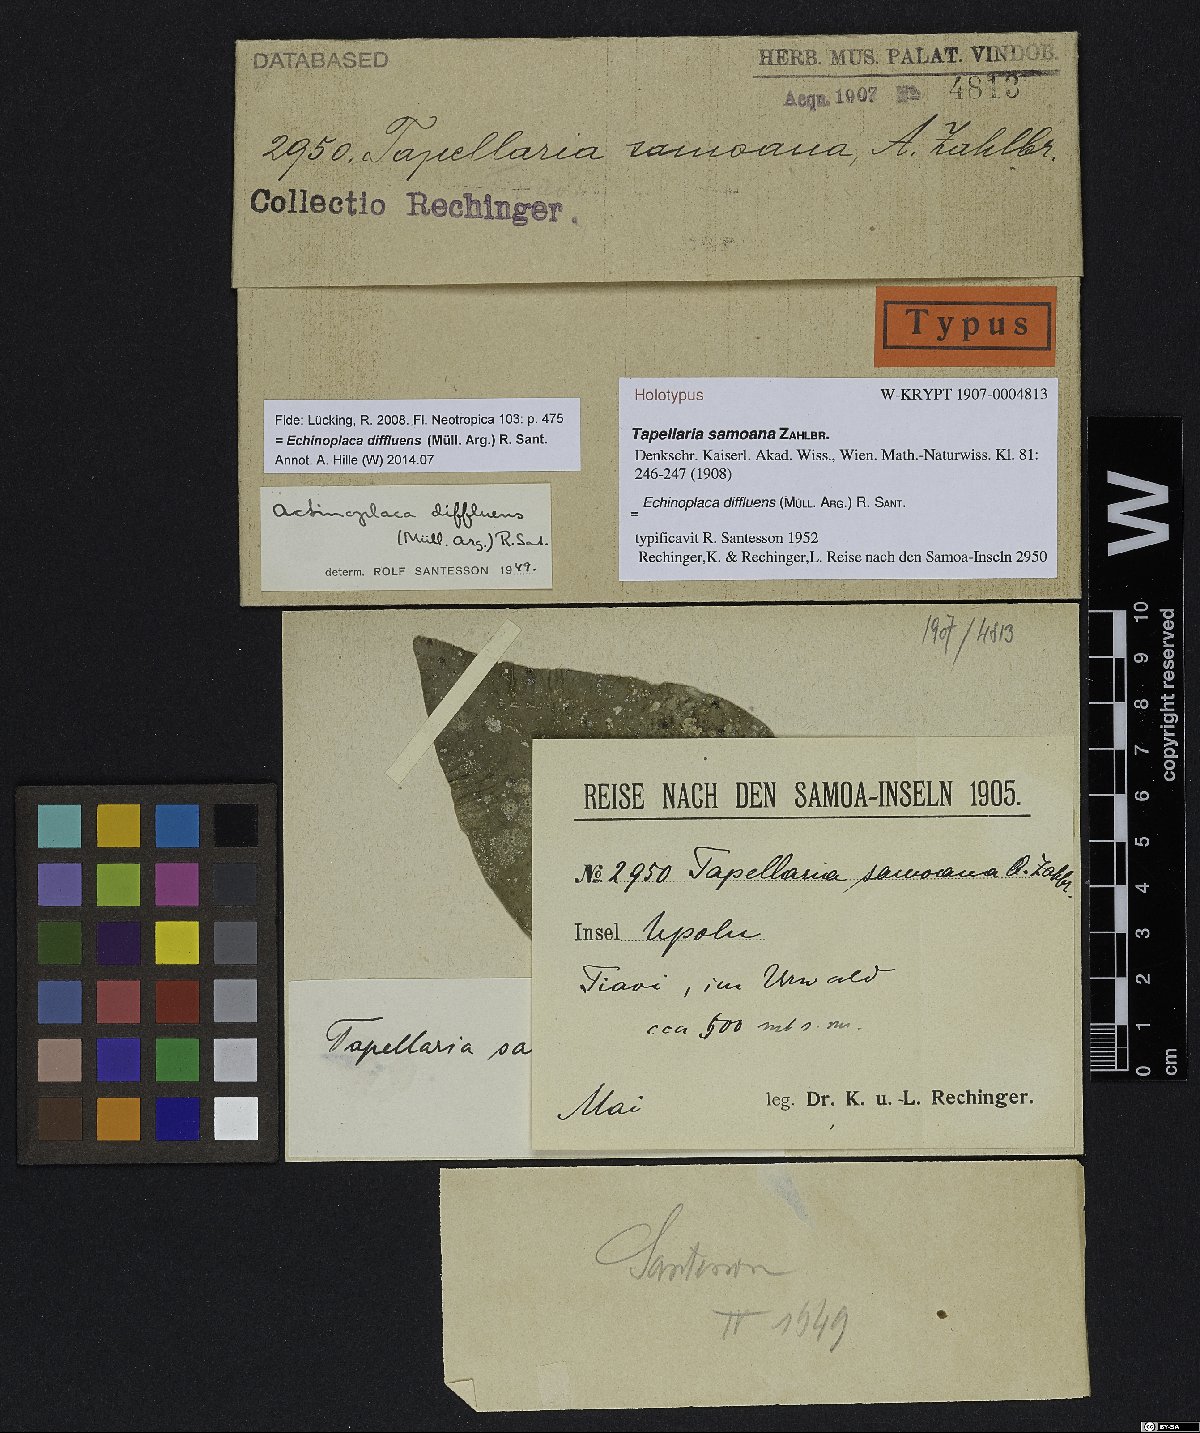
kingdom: Fungi
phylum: Ascomycota
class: Lecanoromycetes
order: Lecanorales
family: Ectolechiaceae
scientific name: Ectolechiaceae
